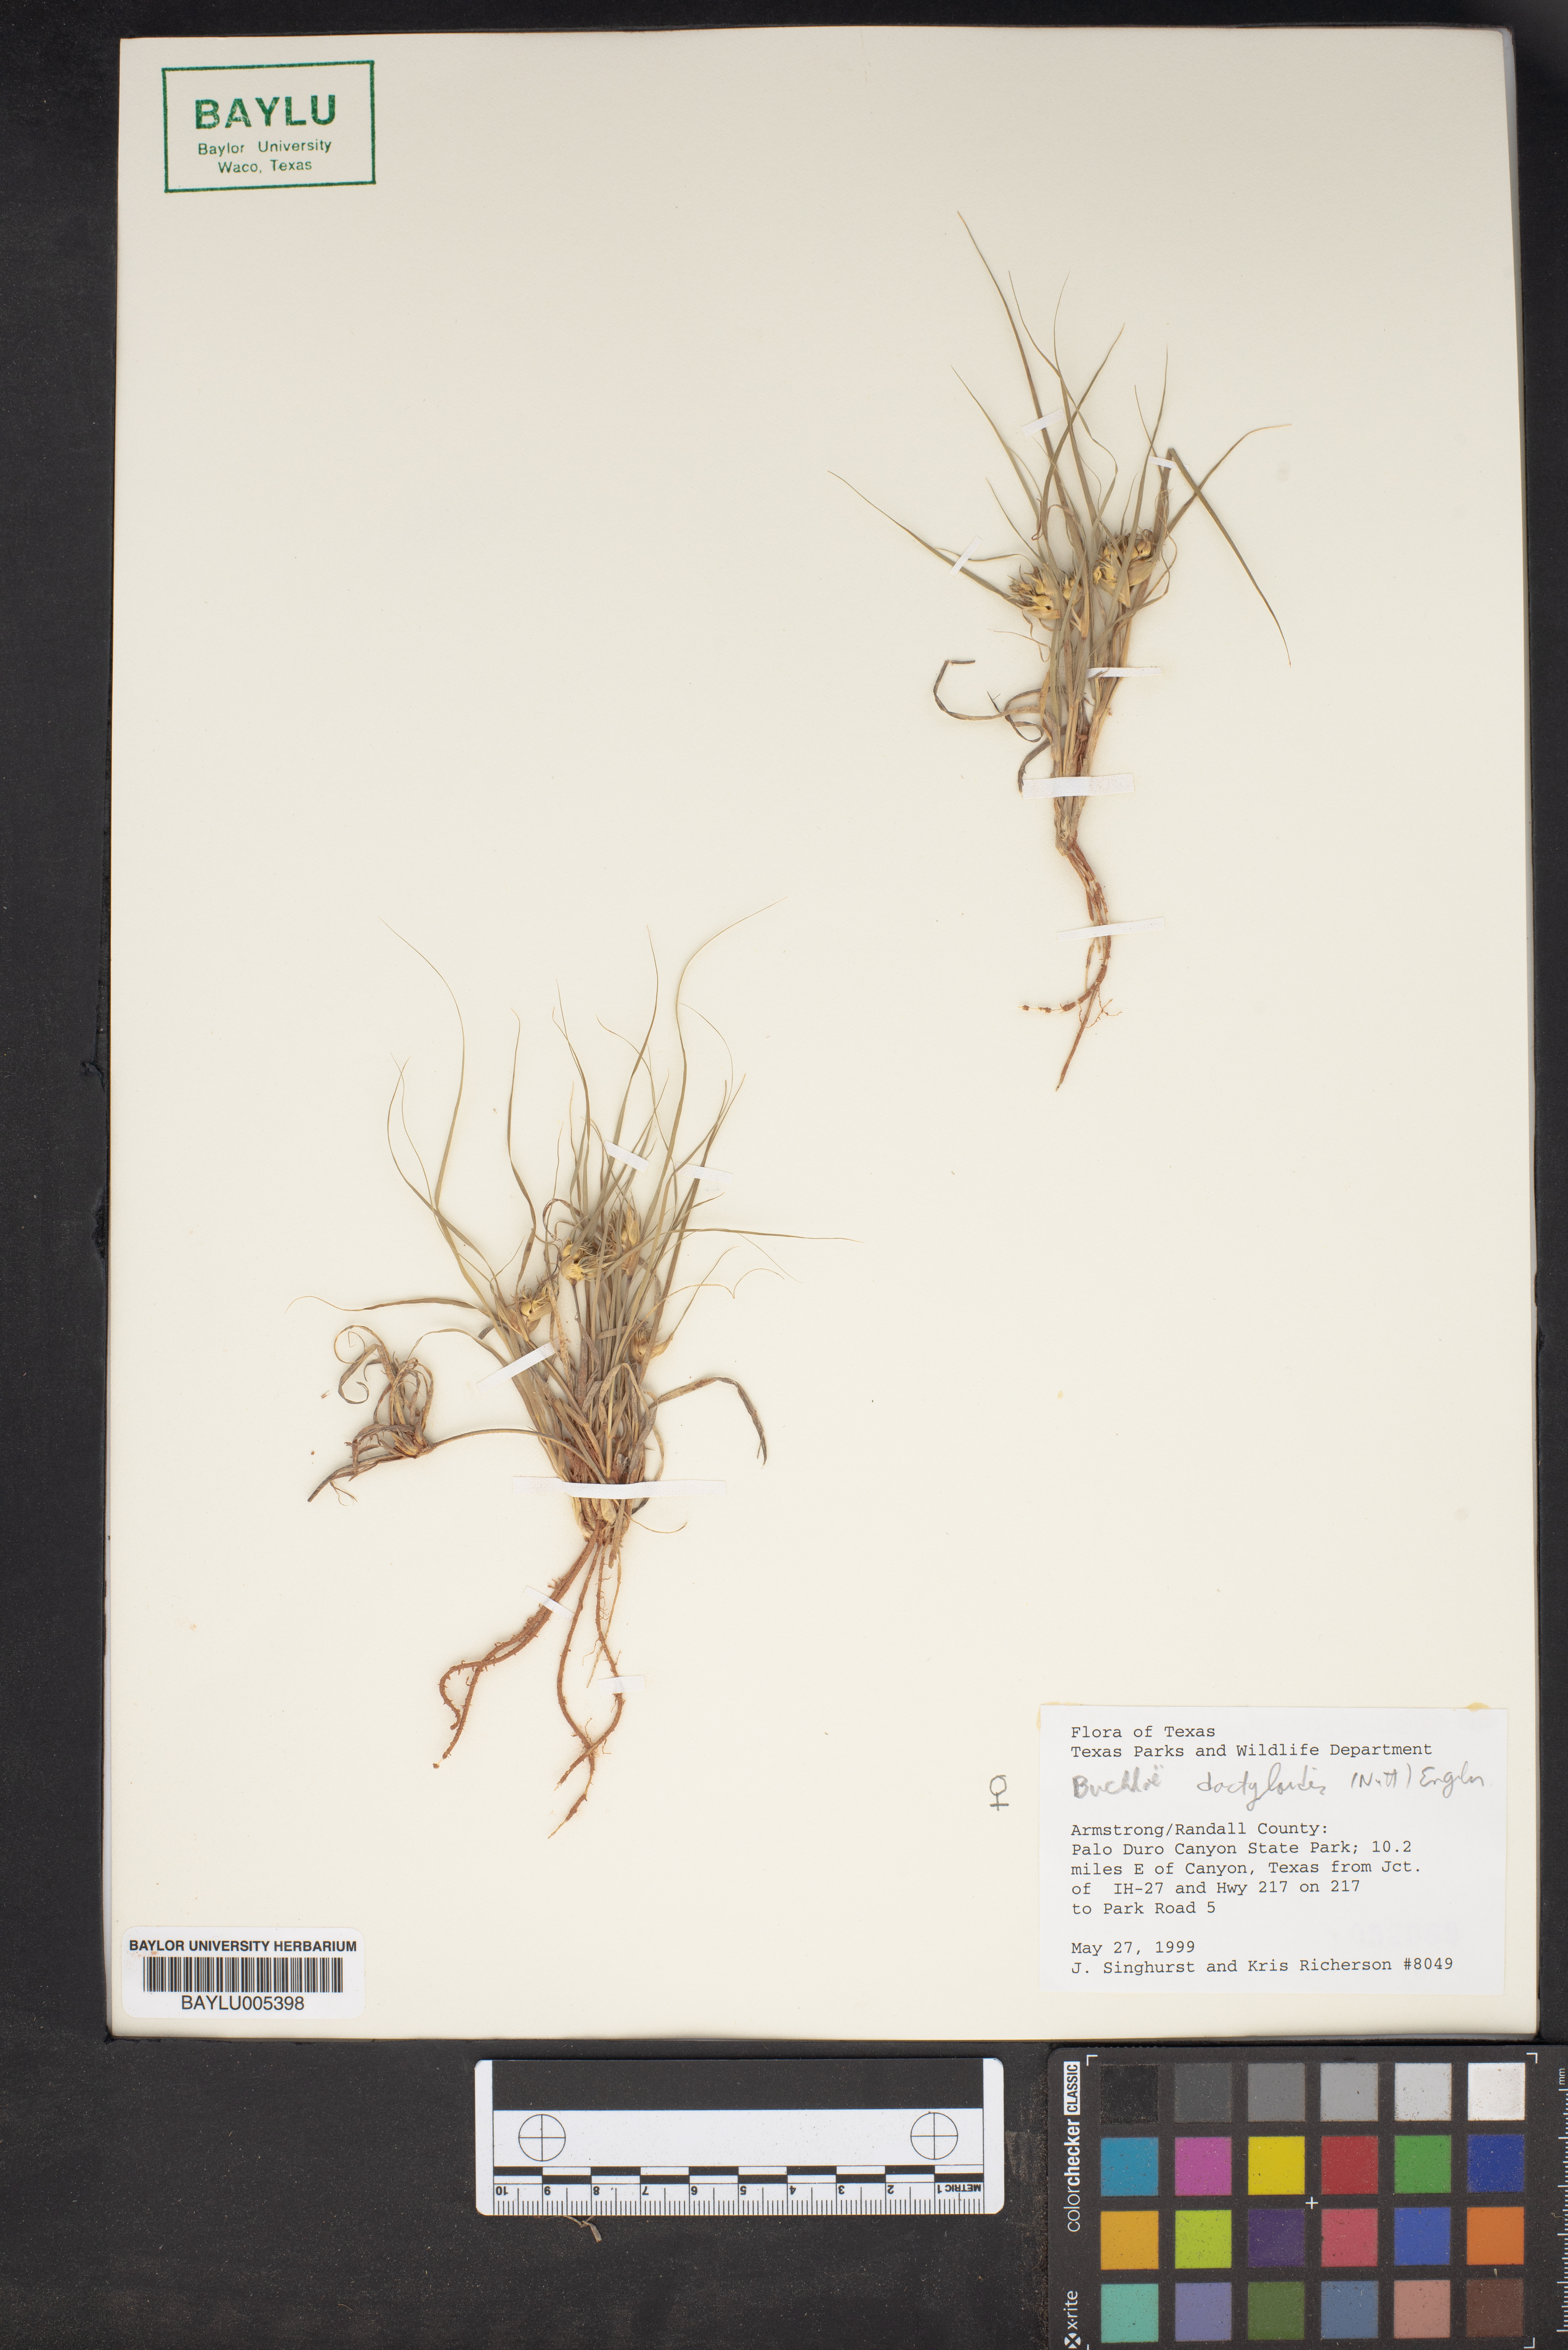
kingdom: Plantae
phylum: Tracheophyta
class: Liliopsida
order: Poales
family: Poaceae
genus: Bouteloua
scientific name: Bouteloua dactyloides
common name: Buffalo grass
